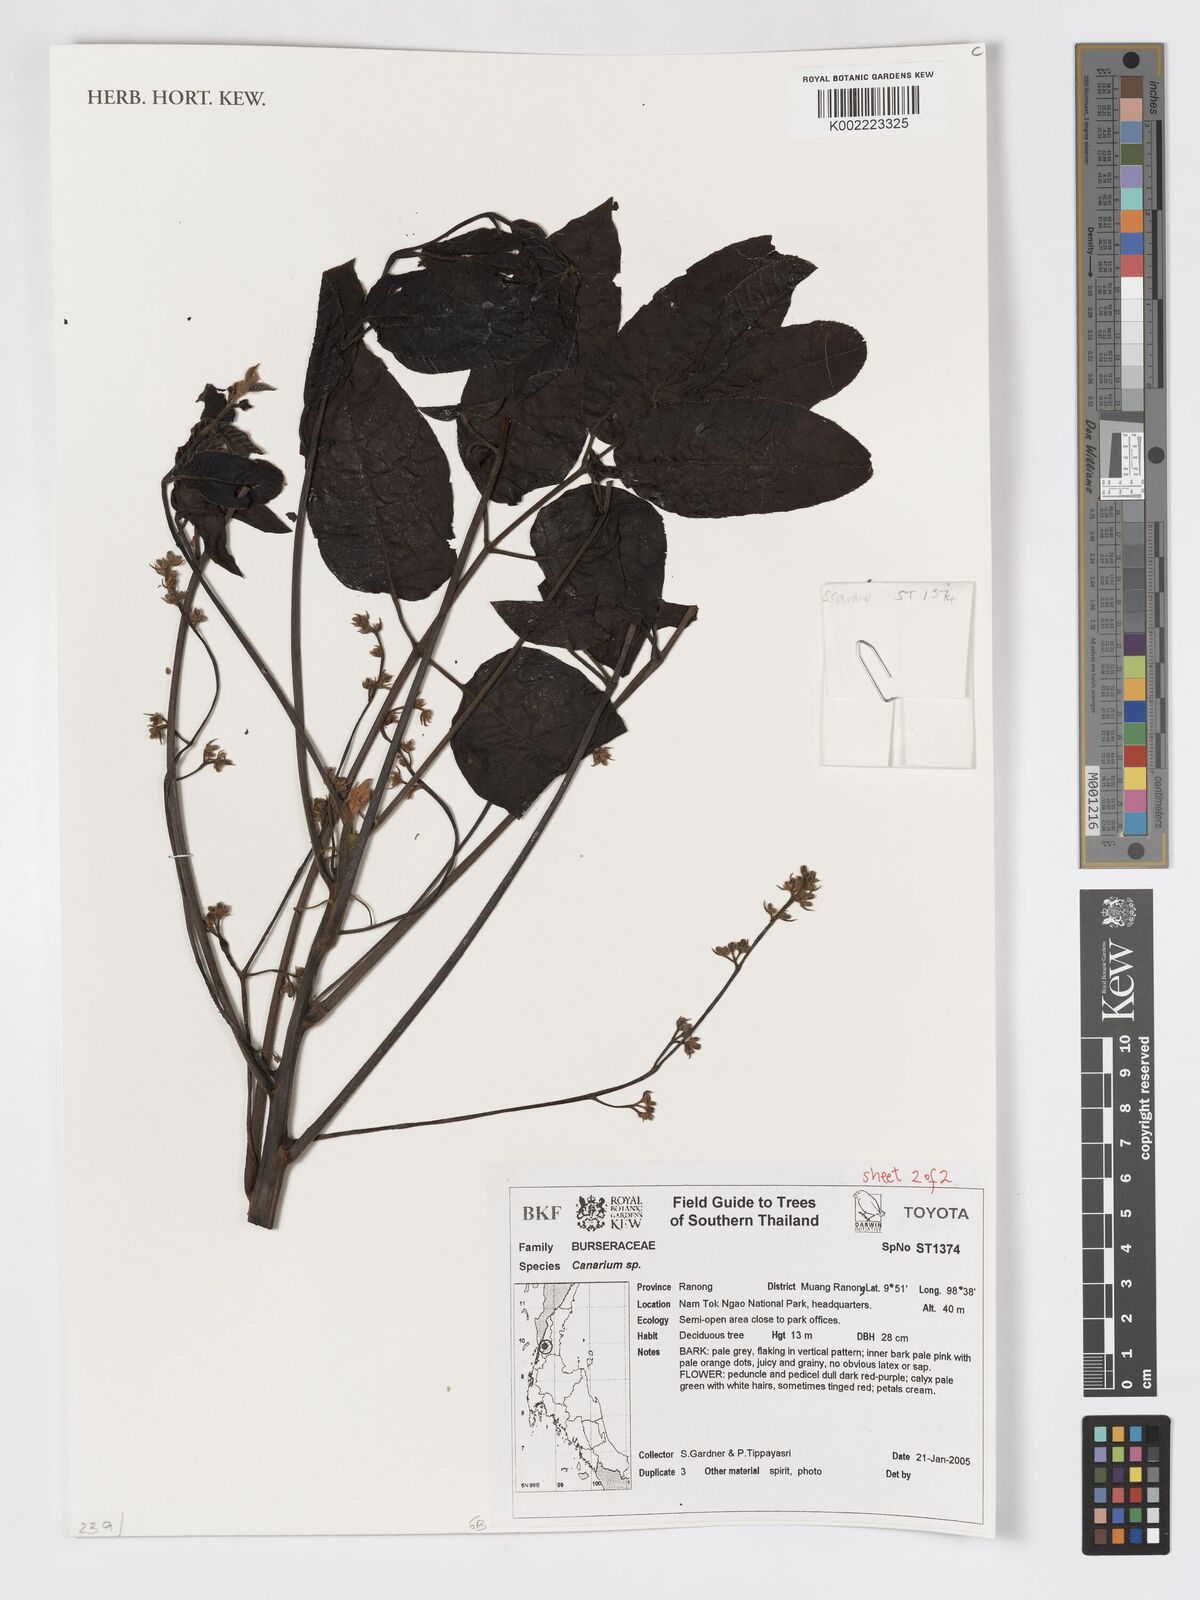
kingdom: Plantae
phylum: Tracheophyta
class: Magnoliopsida
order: Sapindales
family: Burseraceae
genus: Canarium
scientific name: Canarium
